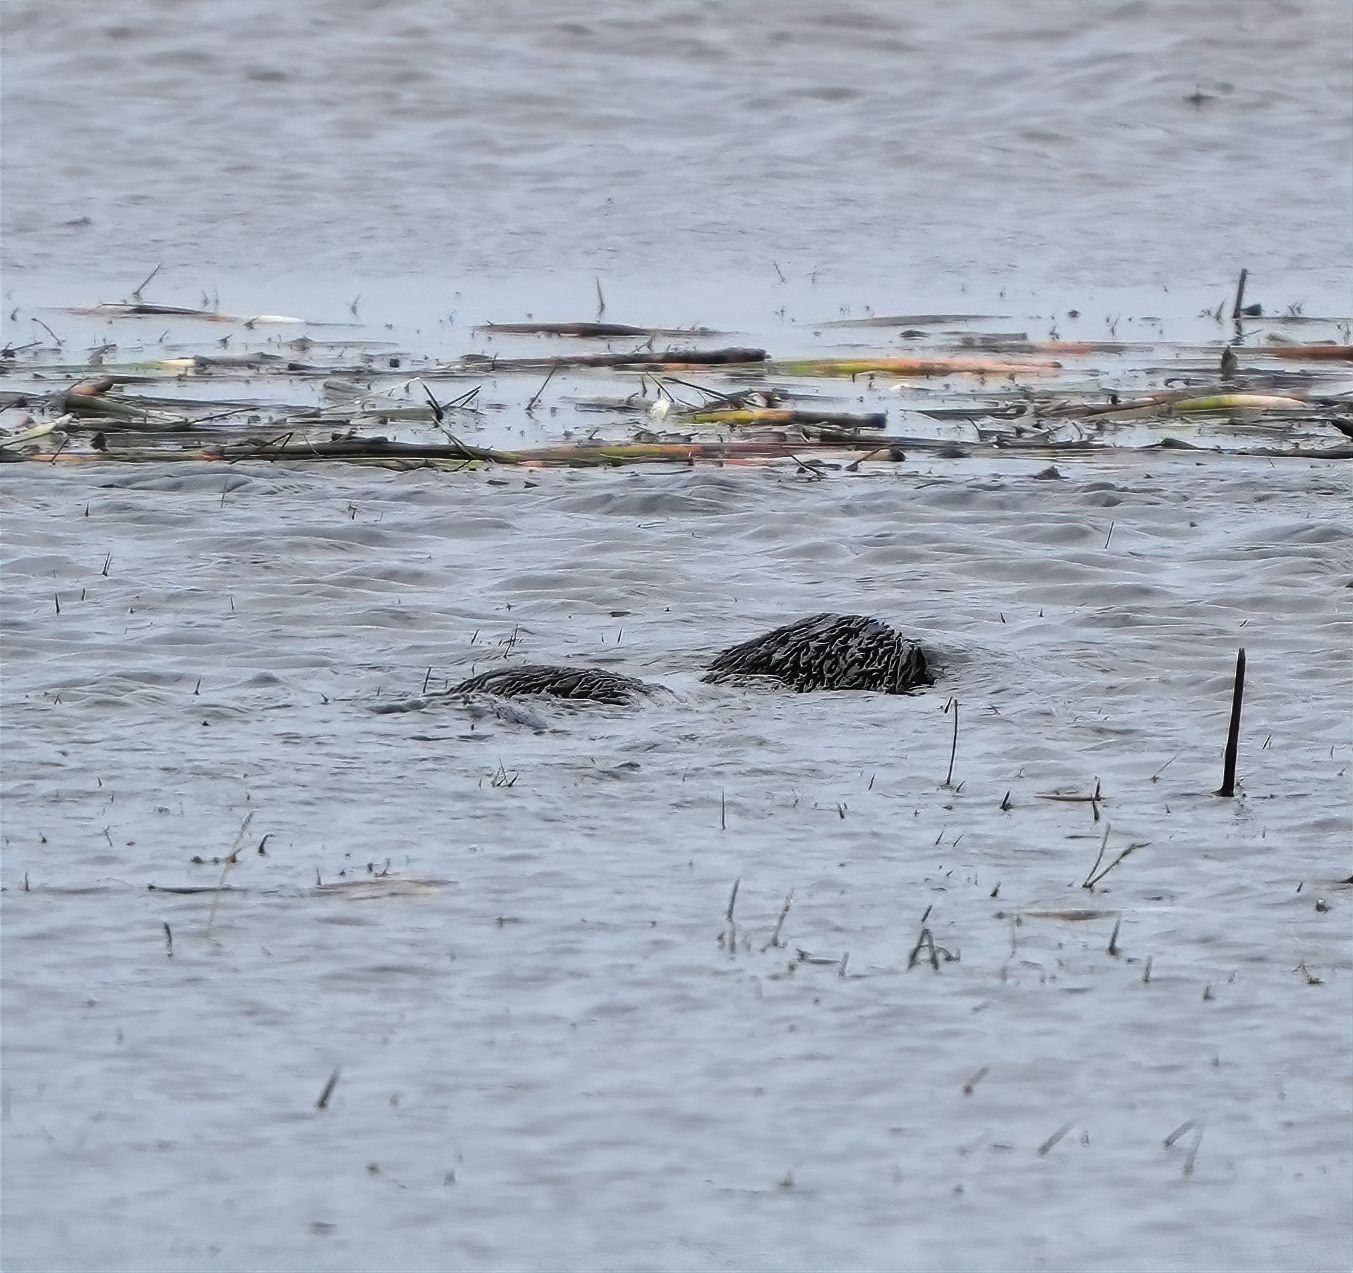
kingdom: Animalia
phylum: Chordata
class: Mammalia
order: Carnivora
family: Mustelidae
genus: Lutra
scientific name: Lutra lutra
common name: Odder
